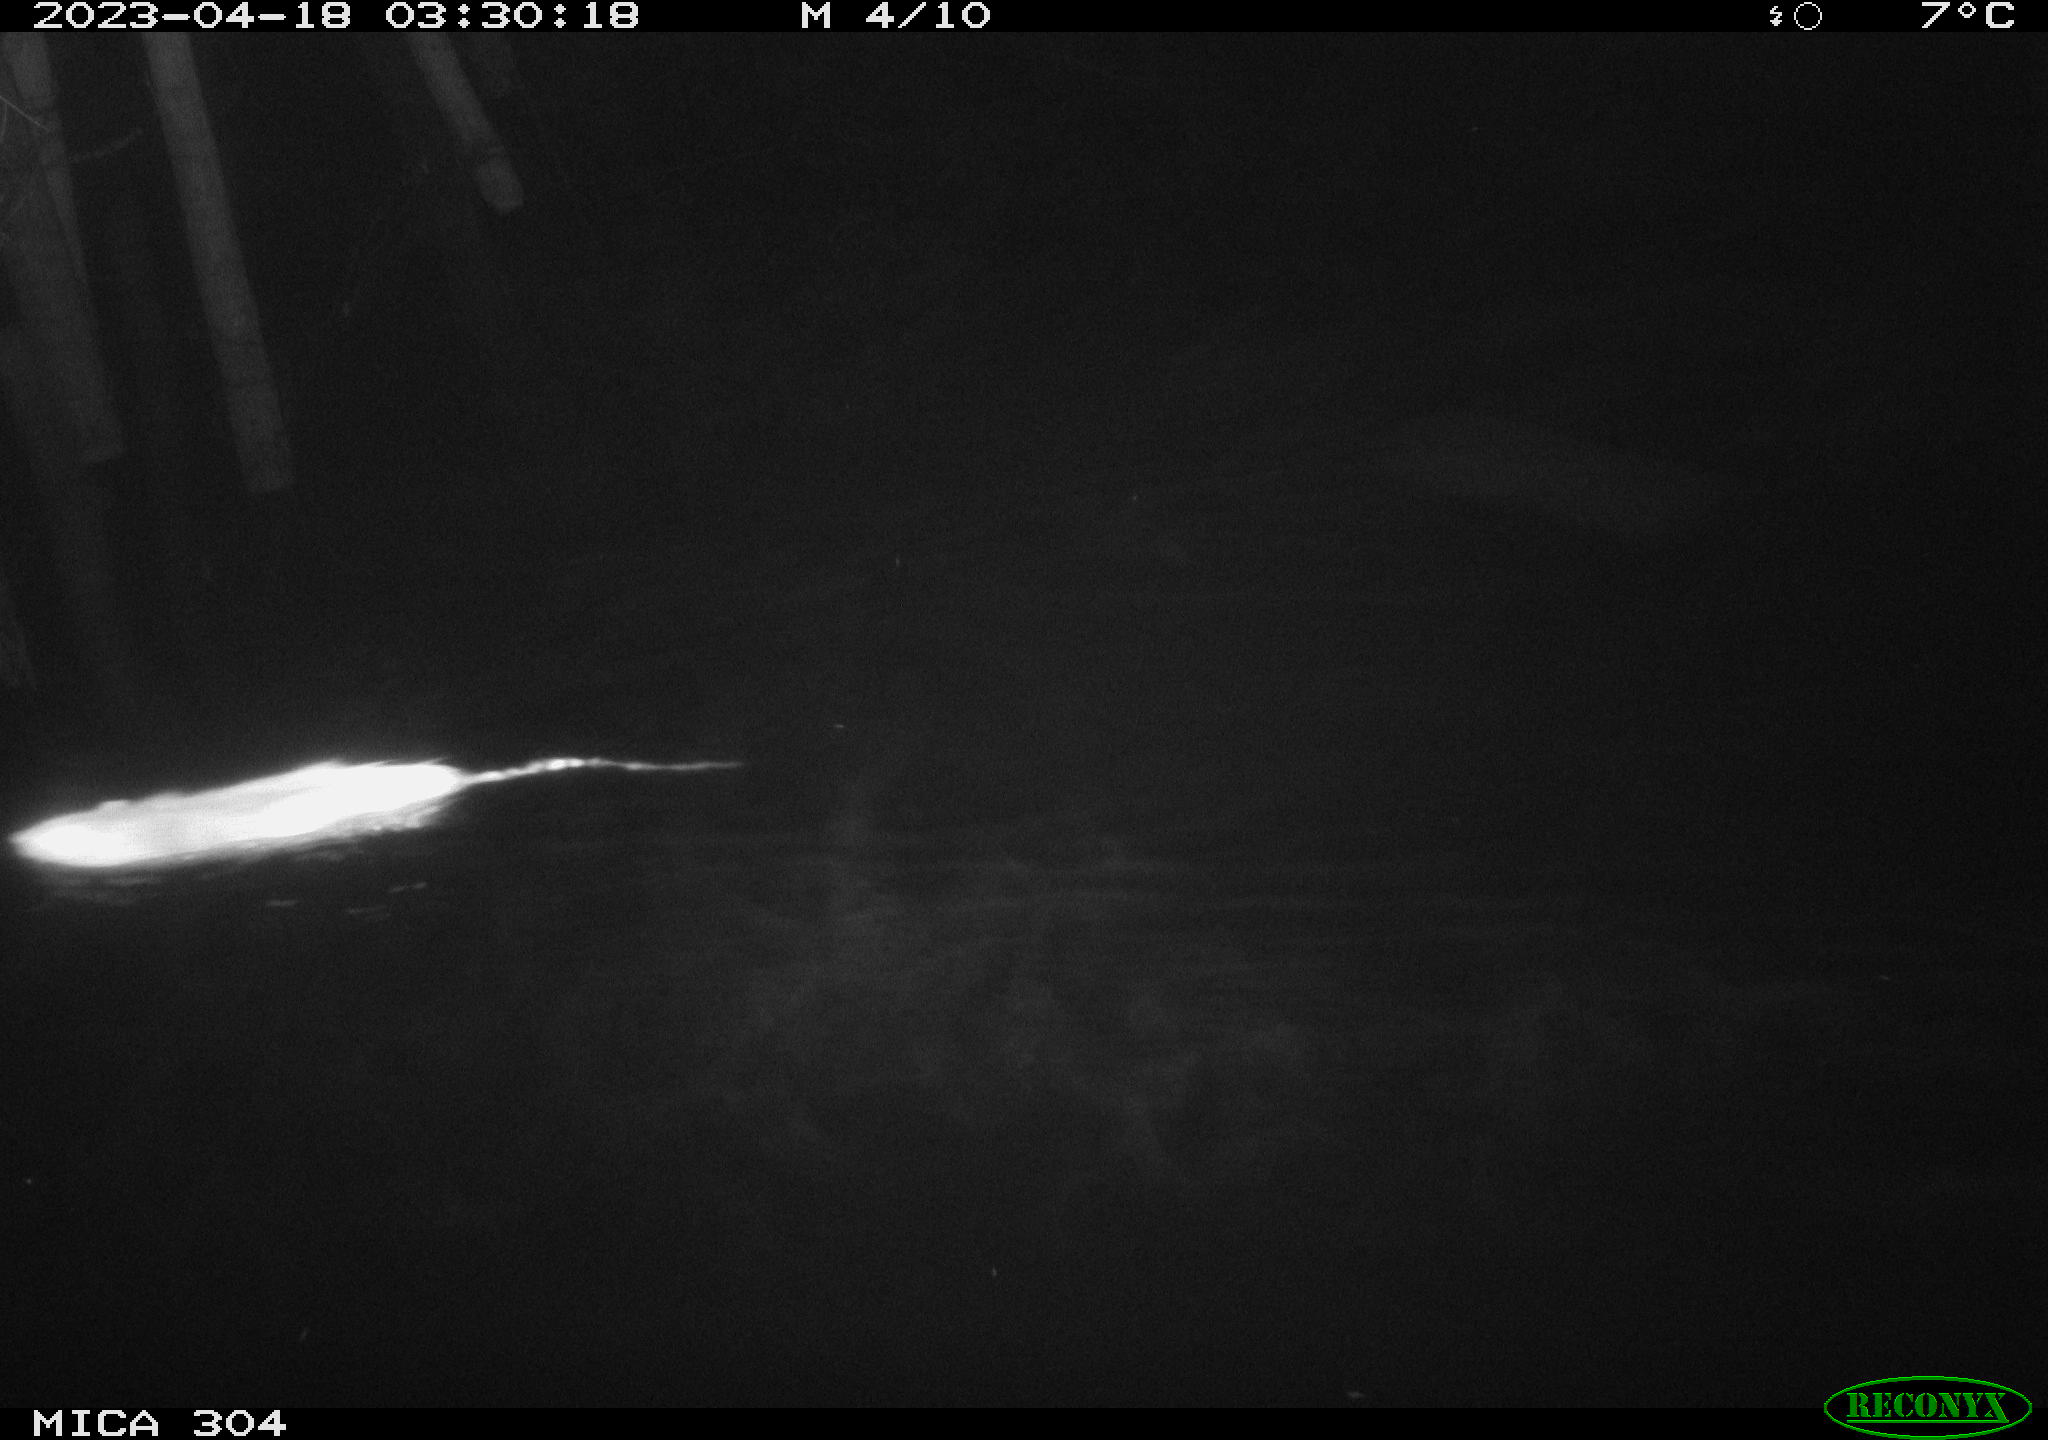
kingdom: Animalia
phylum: Chordata
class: Mammalia
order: Rodentia
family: Muridae
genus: Rattus
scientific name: Rattus norvegicus
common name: Brown rat
